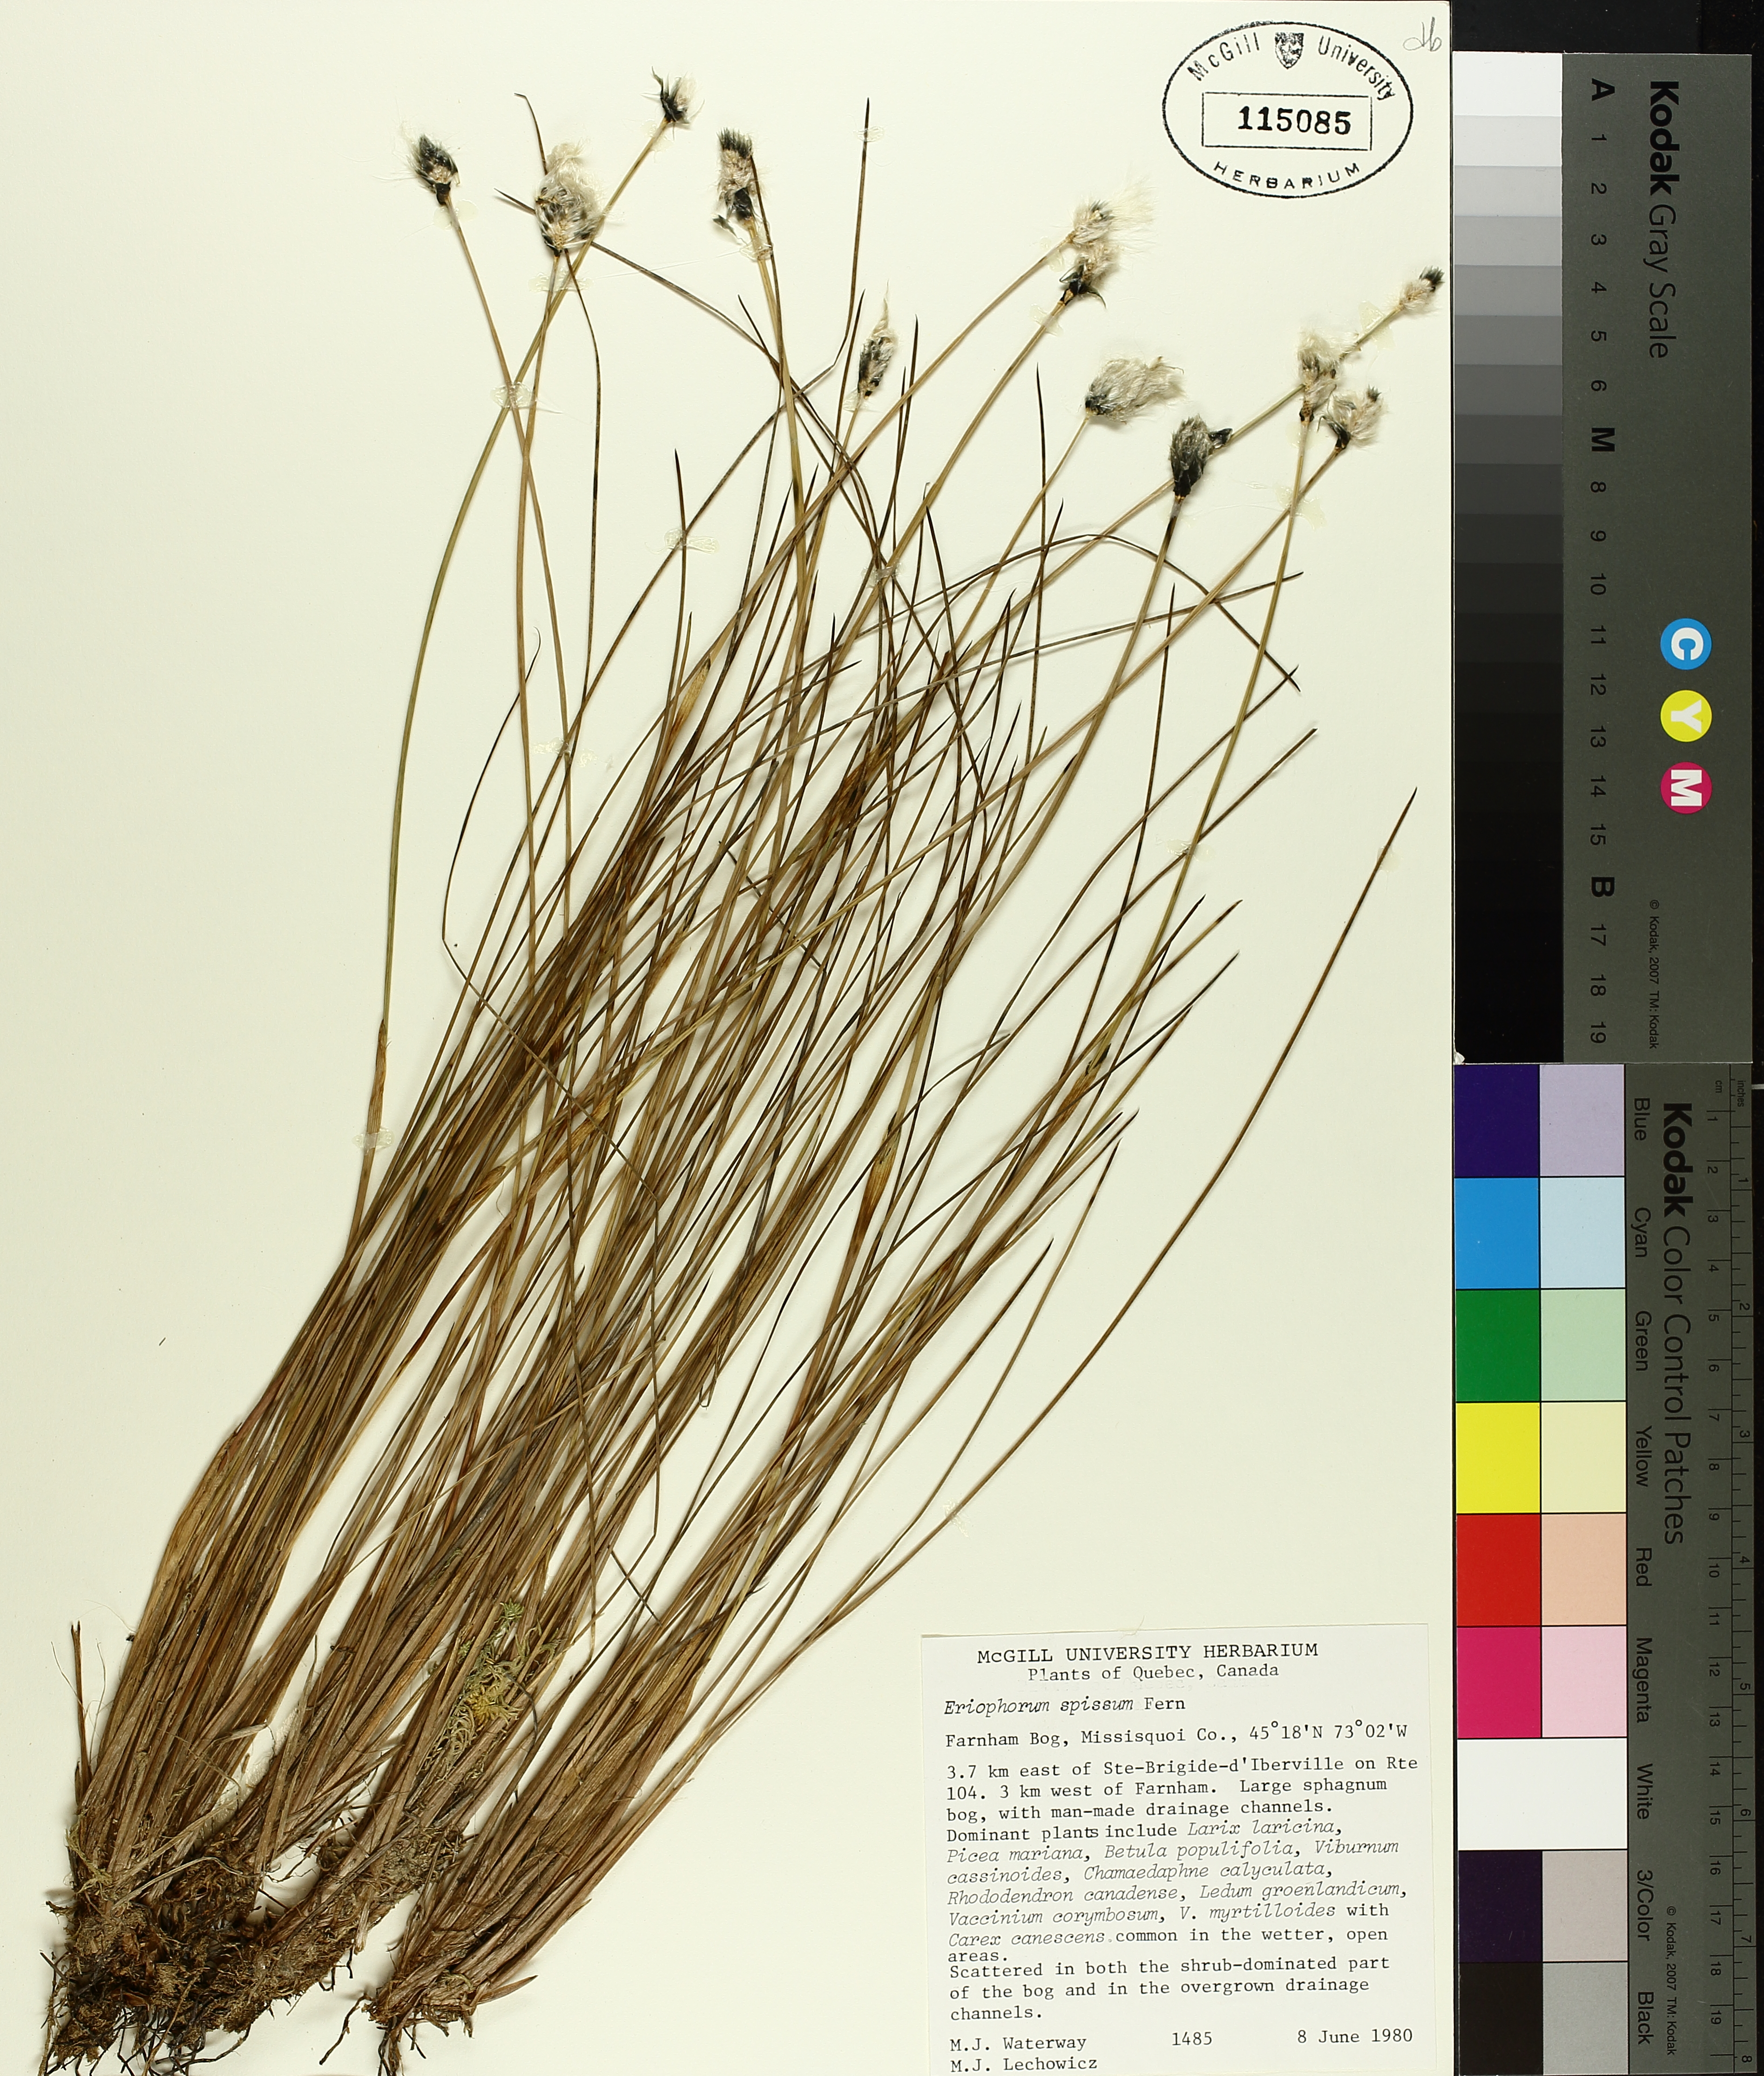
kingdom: Plantae
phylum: Tracheophyta
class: Liliopsida
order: Poales
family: Cyperaceae
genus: Eriophorum
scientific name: Eriophorum vaginatum
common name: Hare's-tail cottongrass
